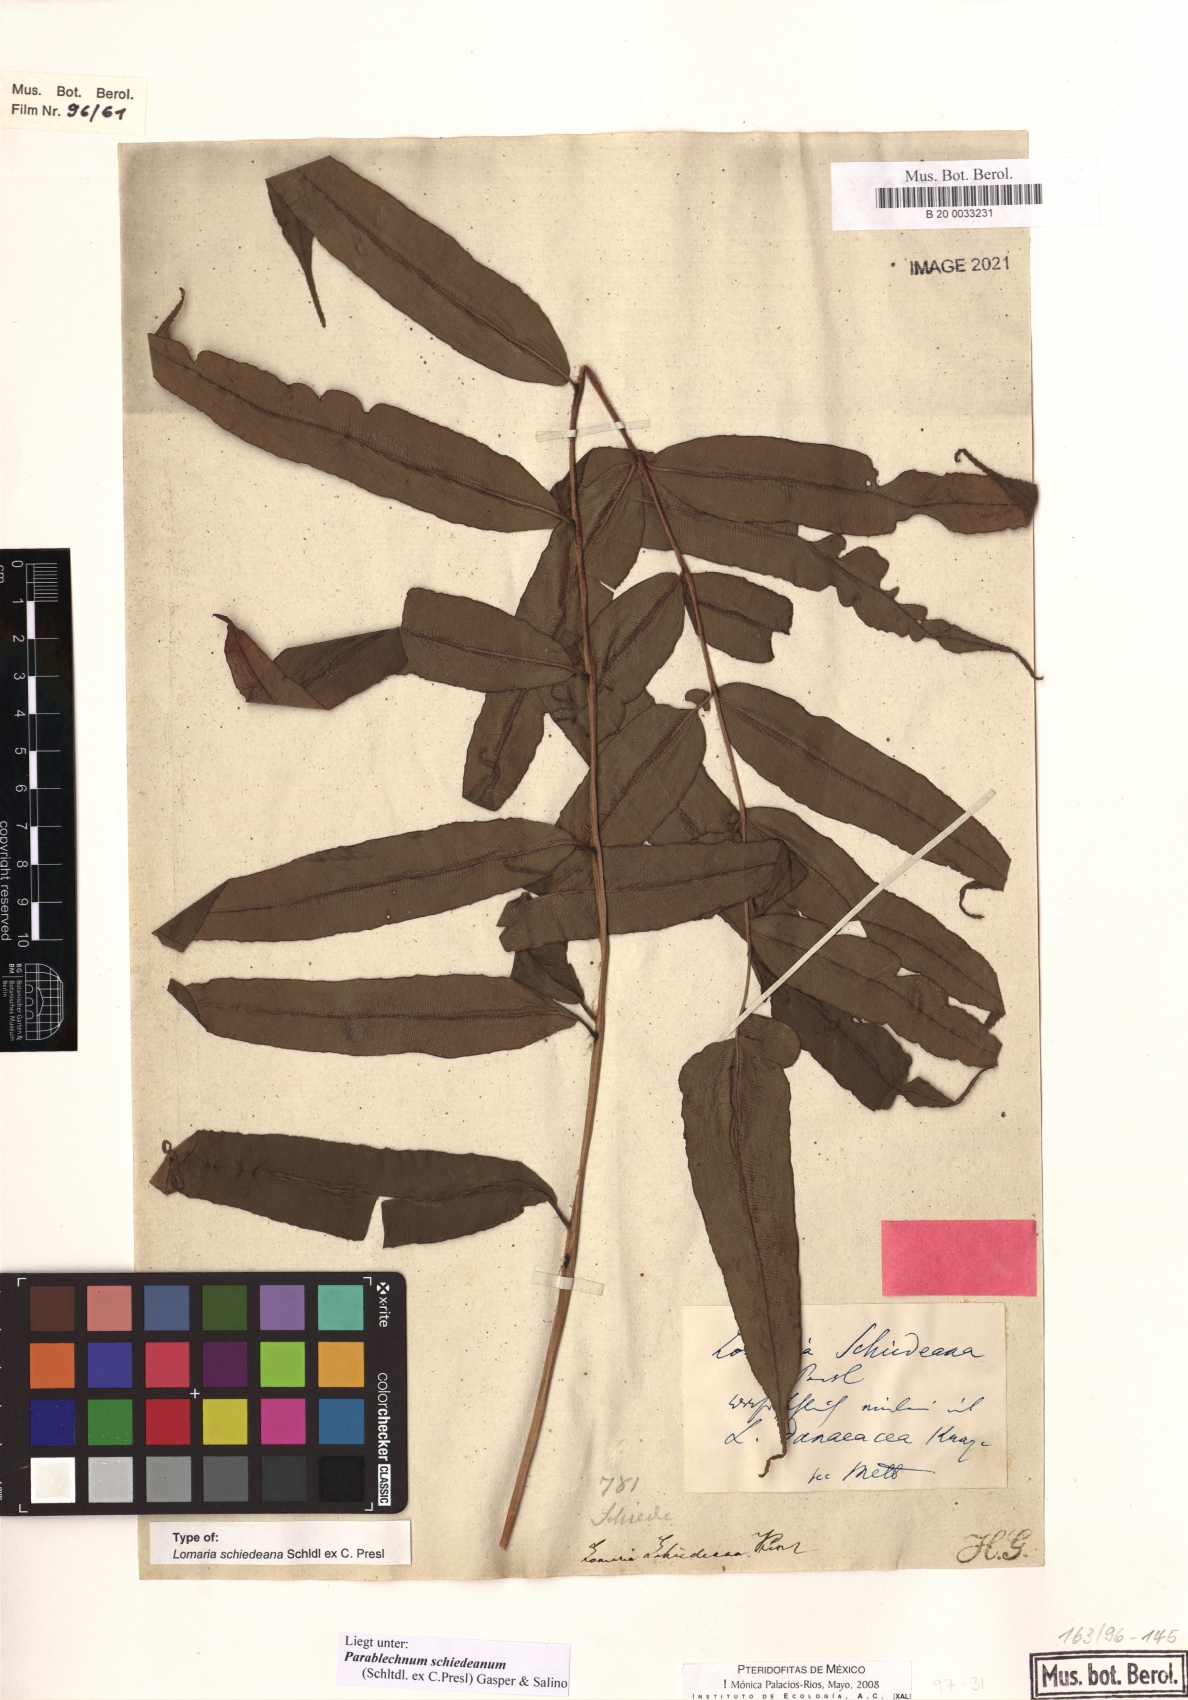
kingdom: Plantae
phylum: Tracheophyta
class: Polypodiopsida
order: Polypodiales
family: Blechnaceae
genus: Parablechnum
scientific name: Parablechnum schiedeanum
